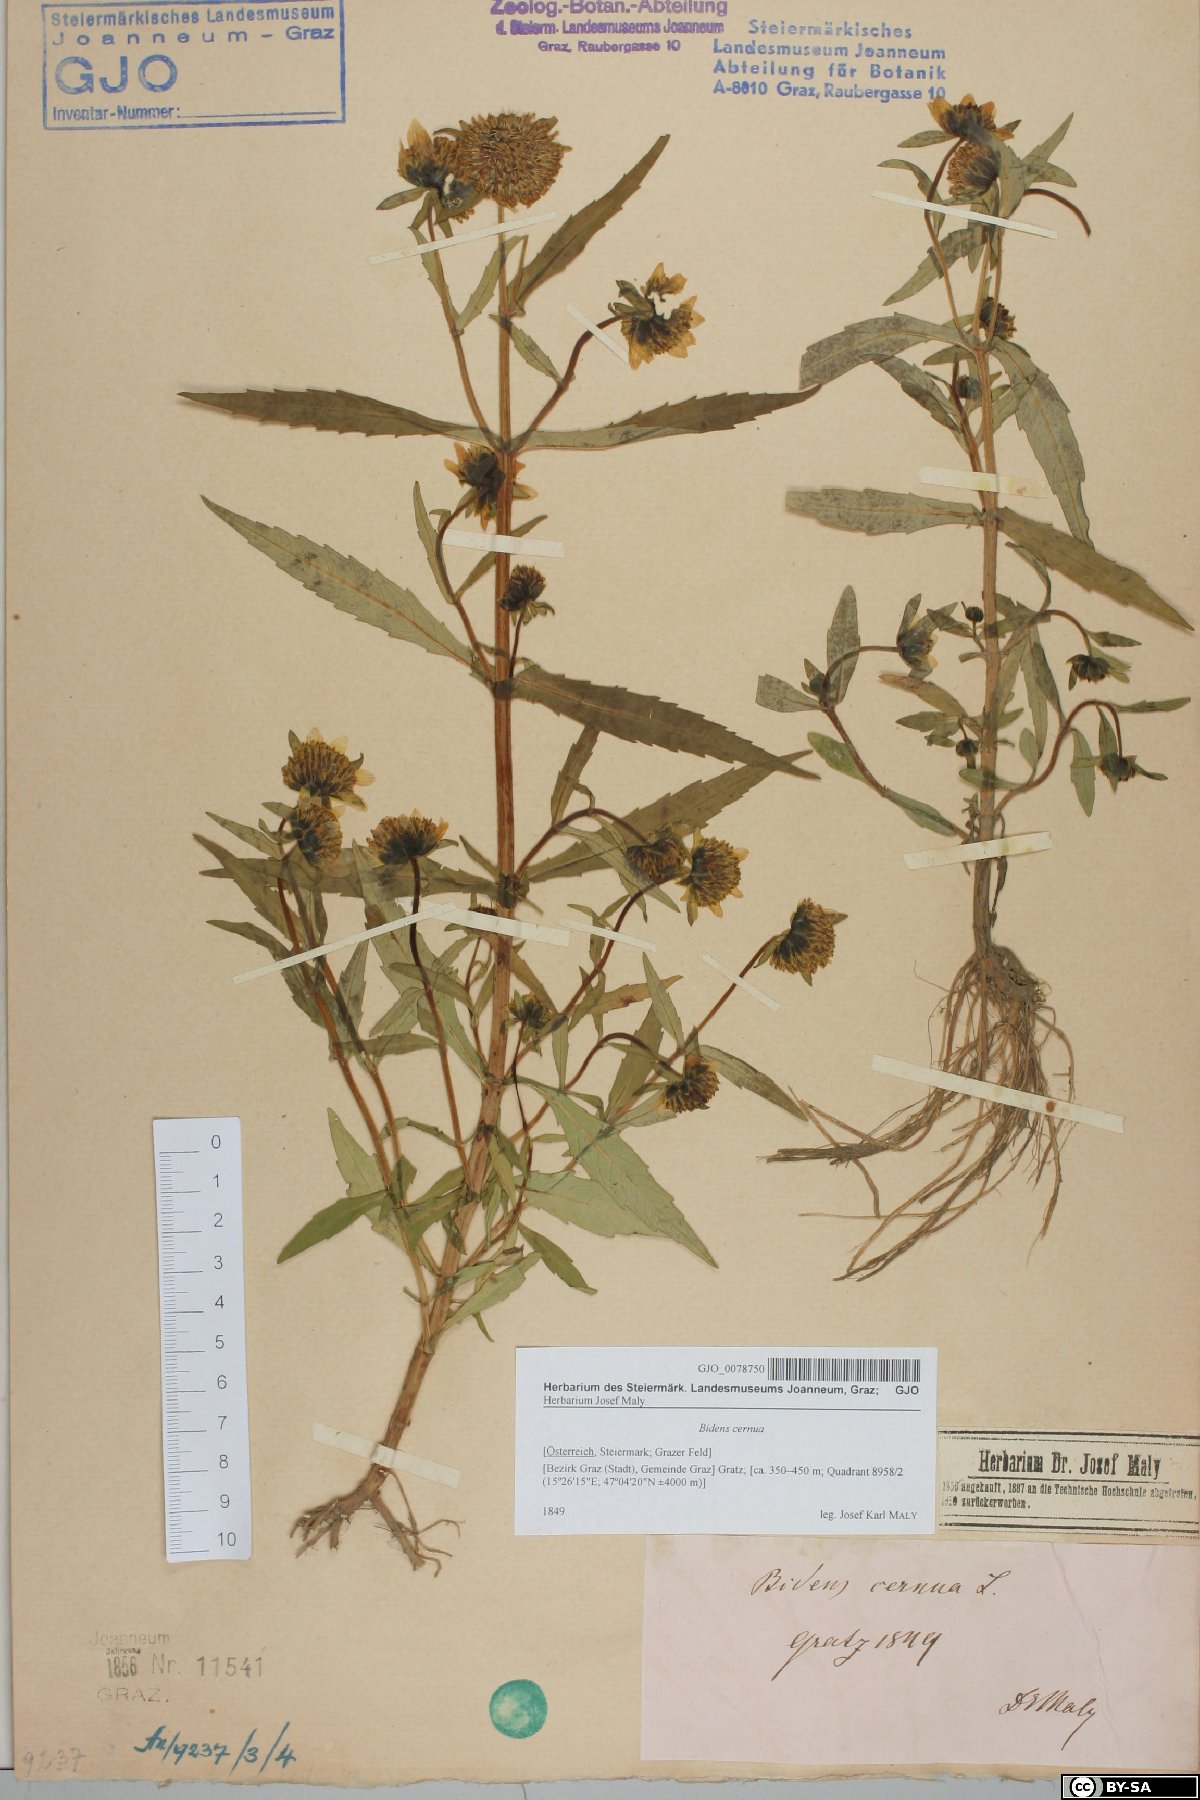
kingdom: Plantae
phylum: Tracheophyta
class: Magnoliopsida
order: Asterales
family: Asteraceae
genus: Bidens
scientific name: Bidens cernua
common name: Nodding bur-marigold
